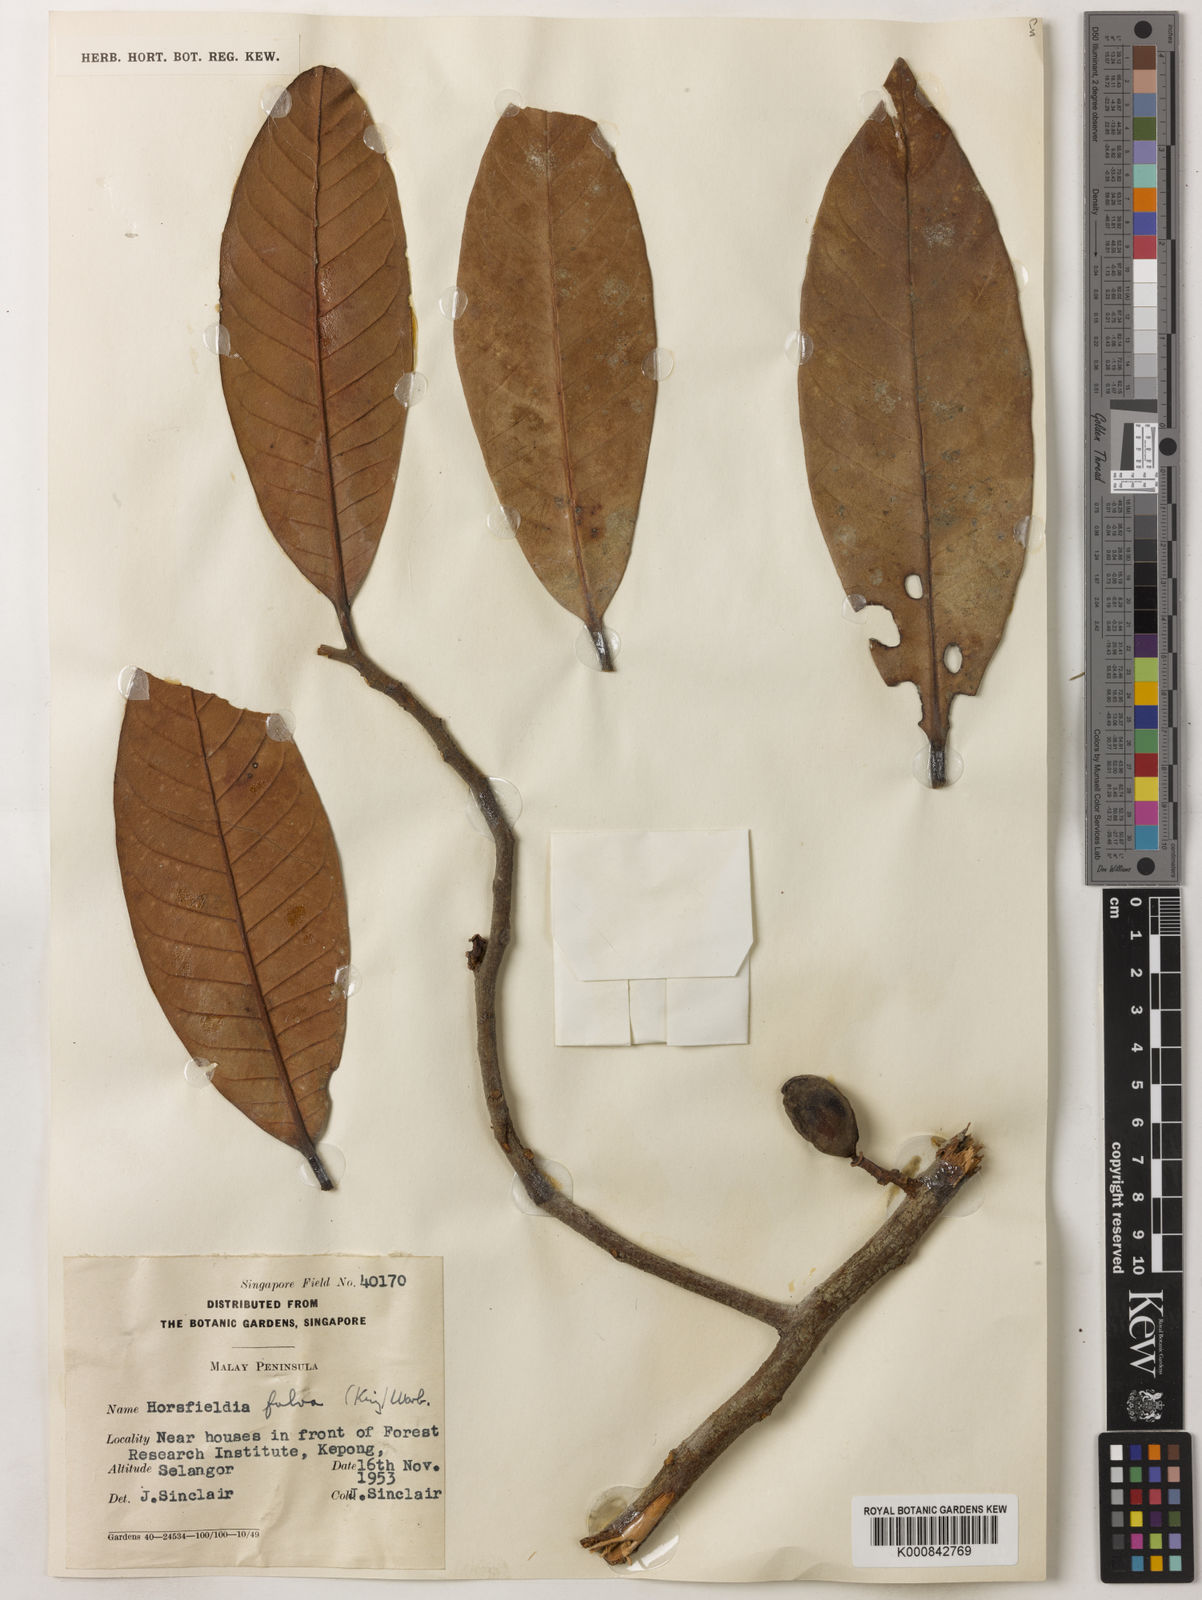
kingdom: Plantae
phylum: Tracheophyta
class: Magnoliopsida
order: Magnoliales
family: Myristicaceae
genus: Horsfieldia
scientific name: Horsfieldia fulva
